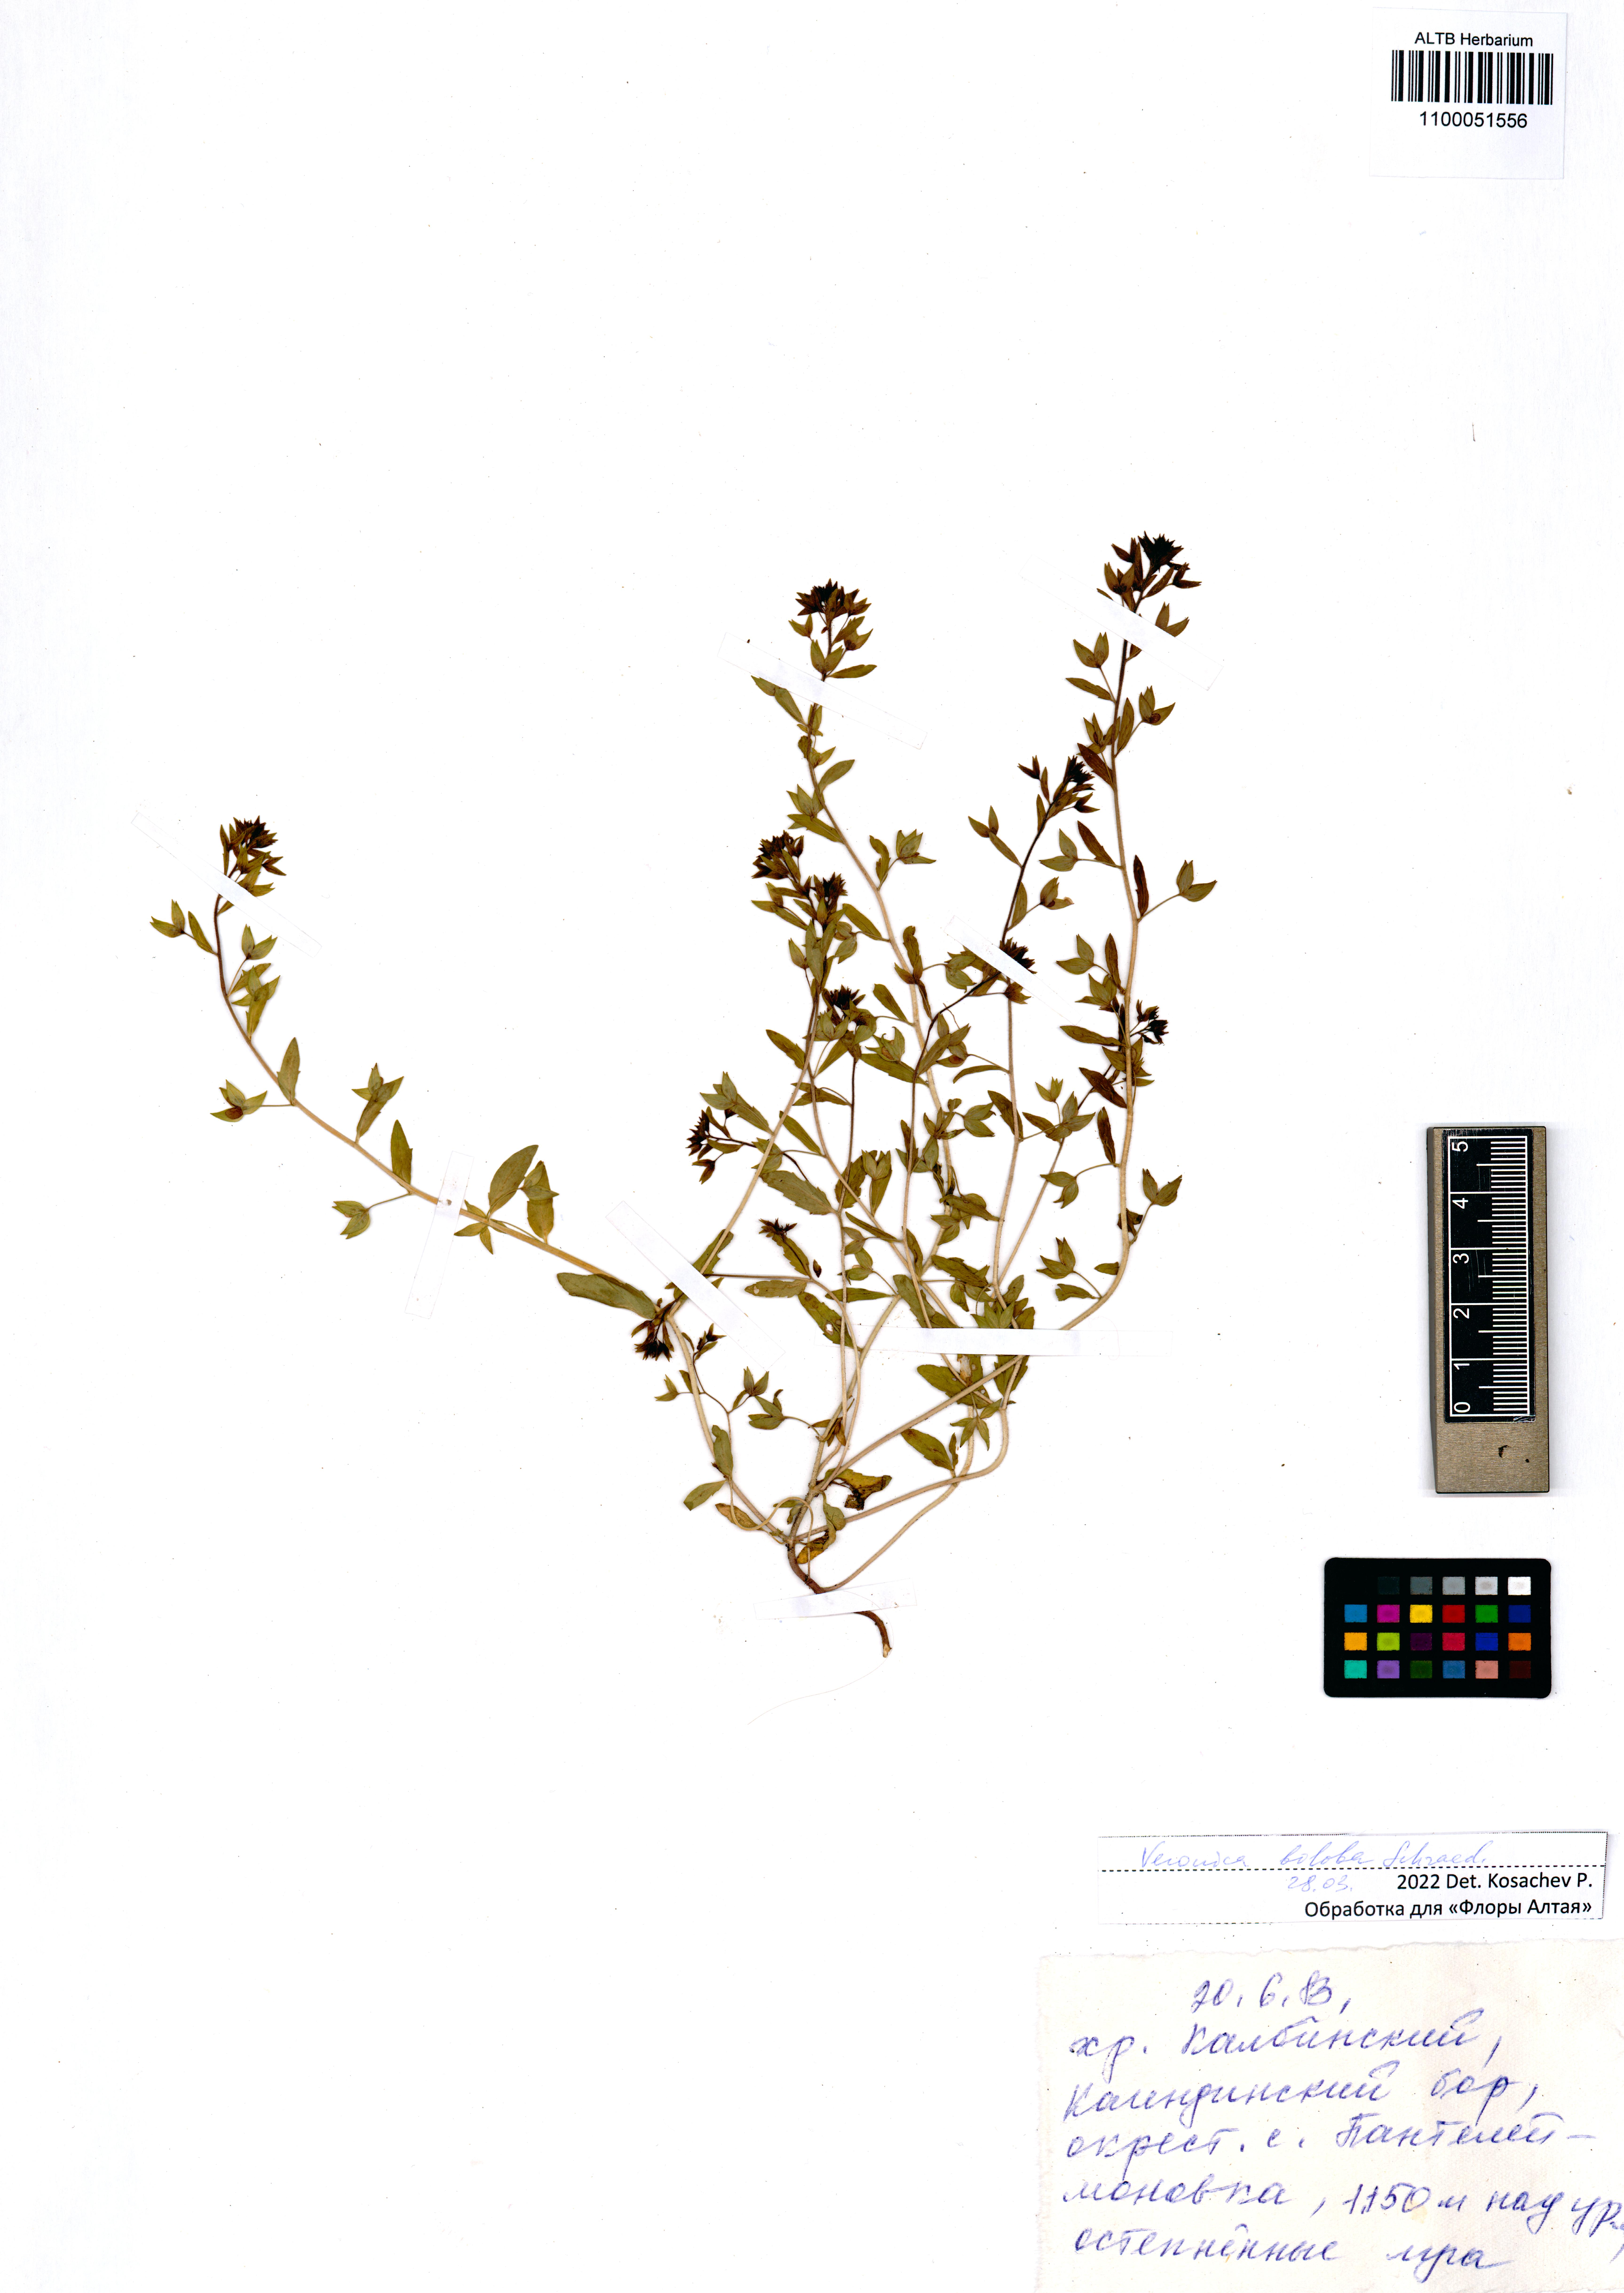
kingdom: Plantae
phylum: Tracheophyta
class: Magnoliopsida
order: Lamiales
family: Plantaginaceae
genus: Veronica
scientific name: Veronica biloba
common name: Twolobe speedwell
